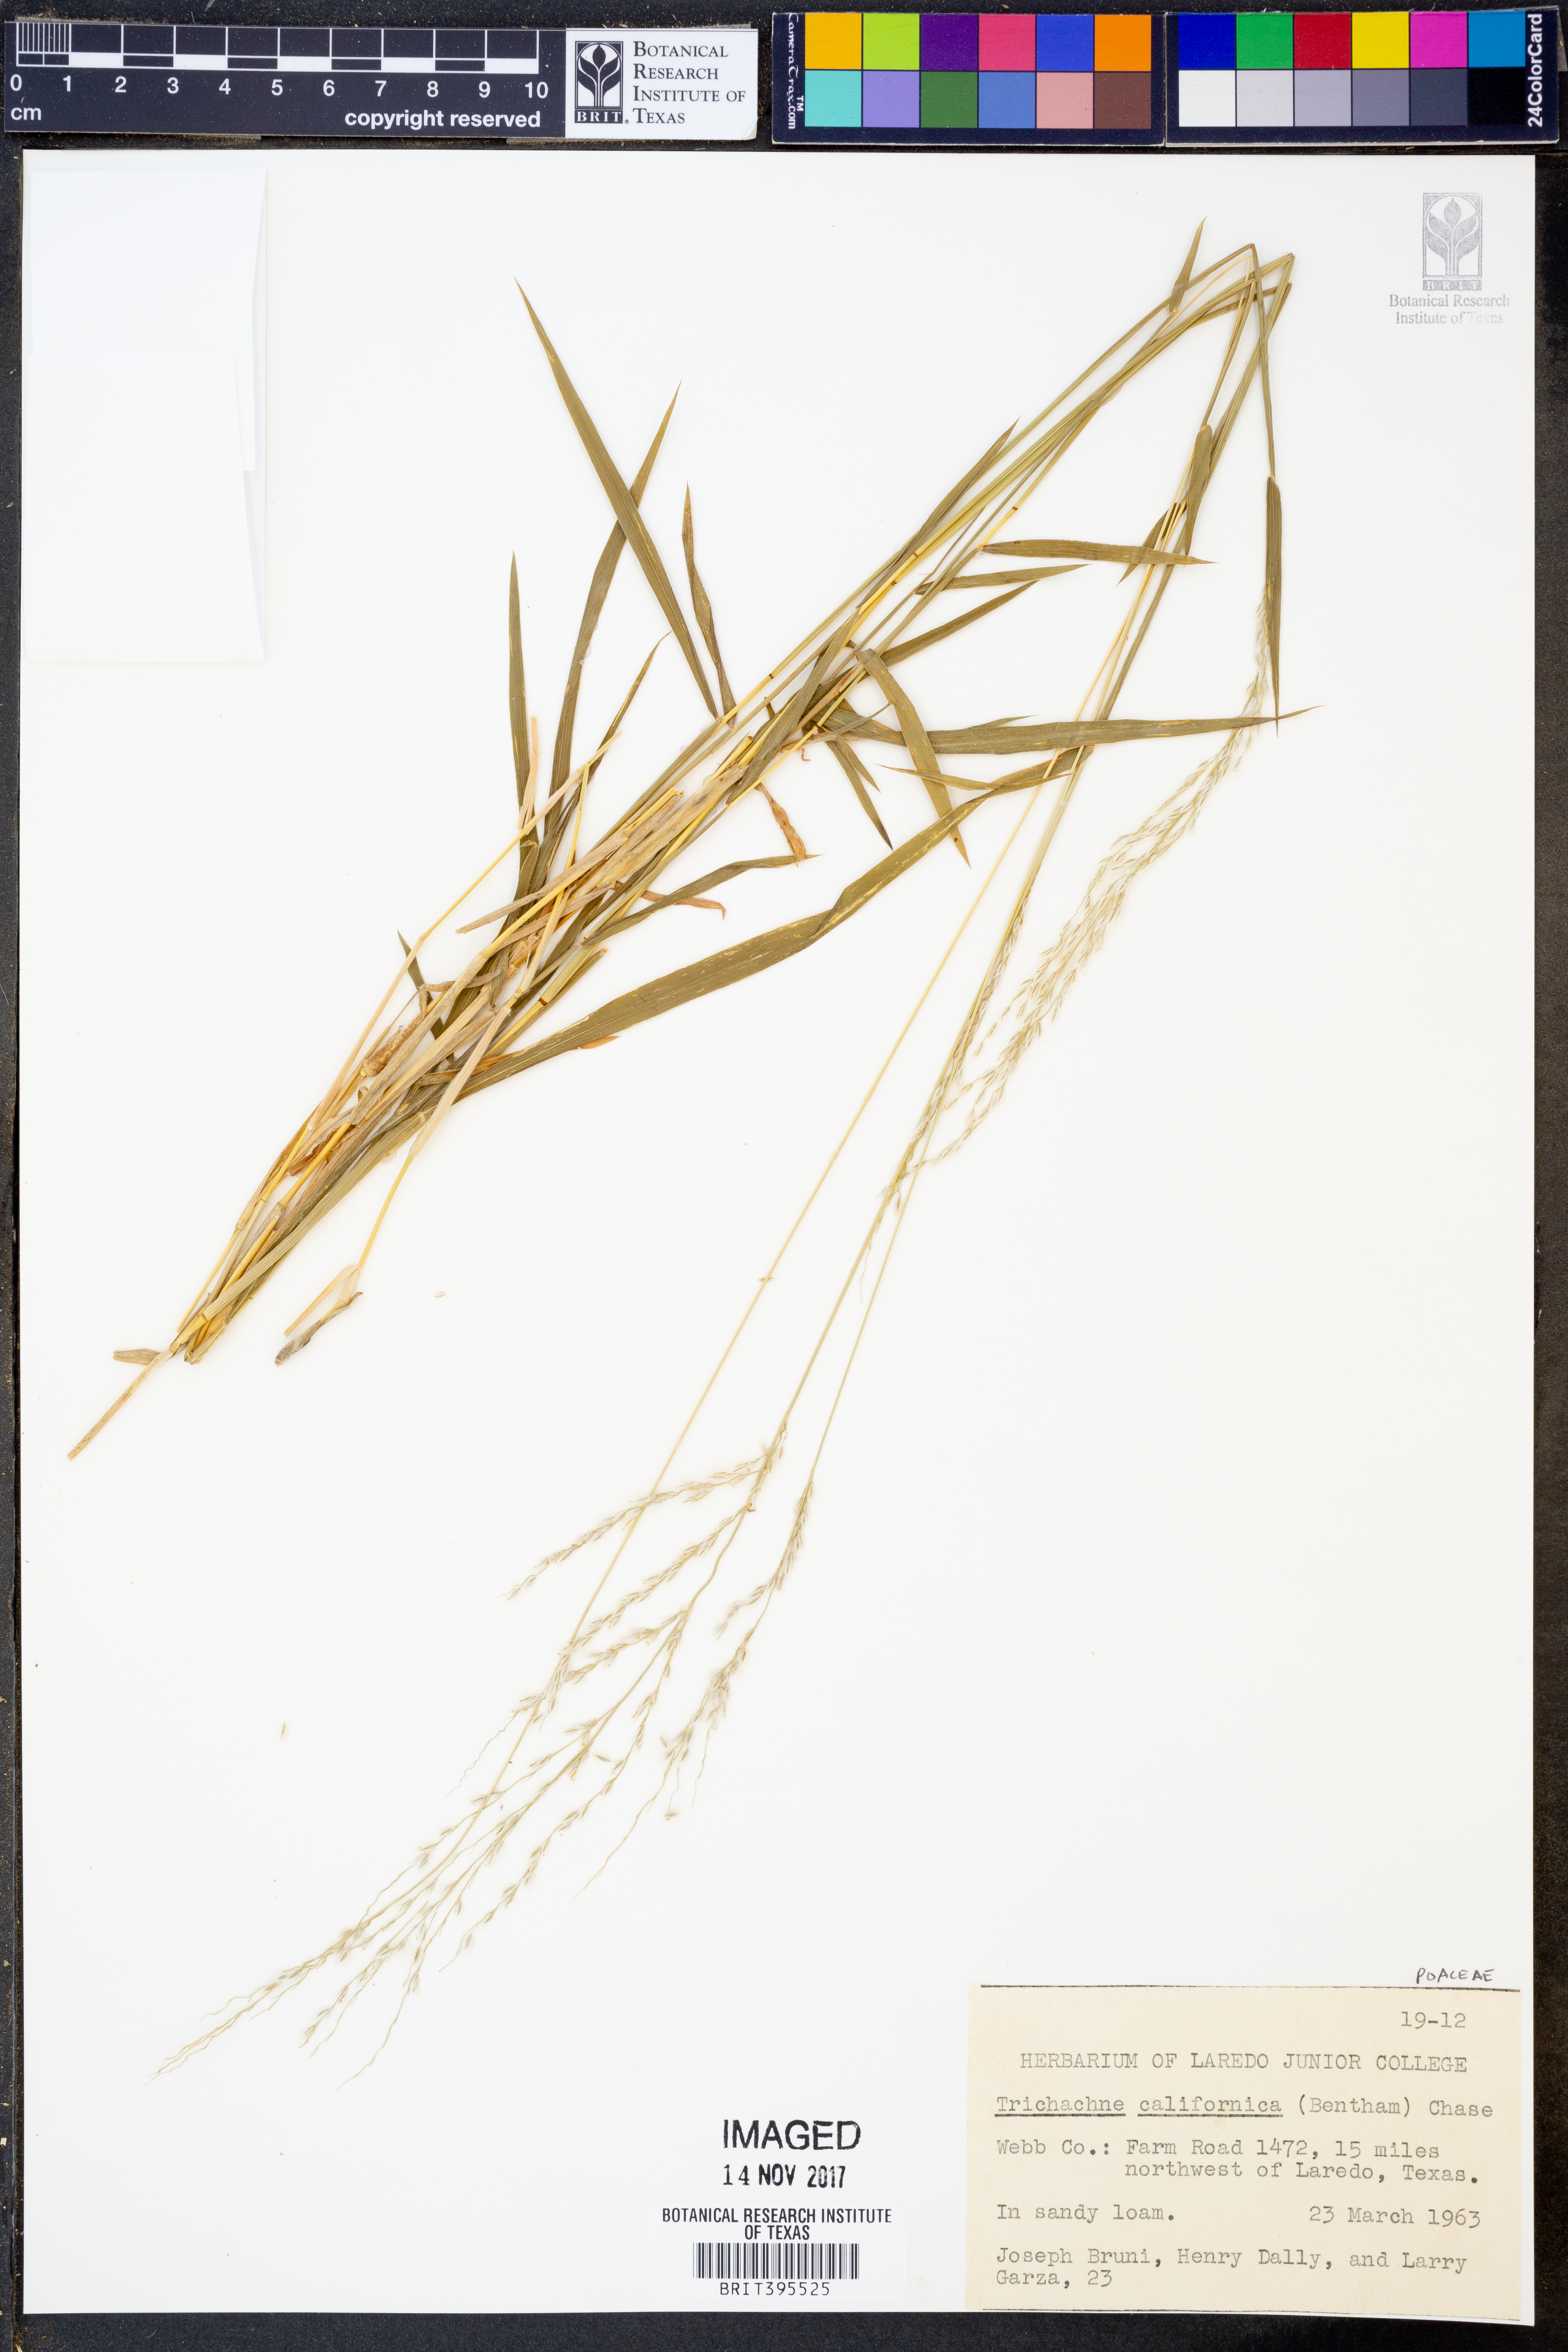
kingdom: Plantae
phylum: Tracheophyta
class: Liliopsida
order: Poales
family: Poaceae
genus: Digitaria
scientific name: Digitaria californica
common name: Arizona cottontop
